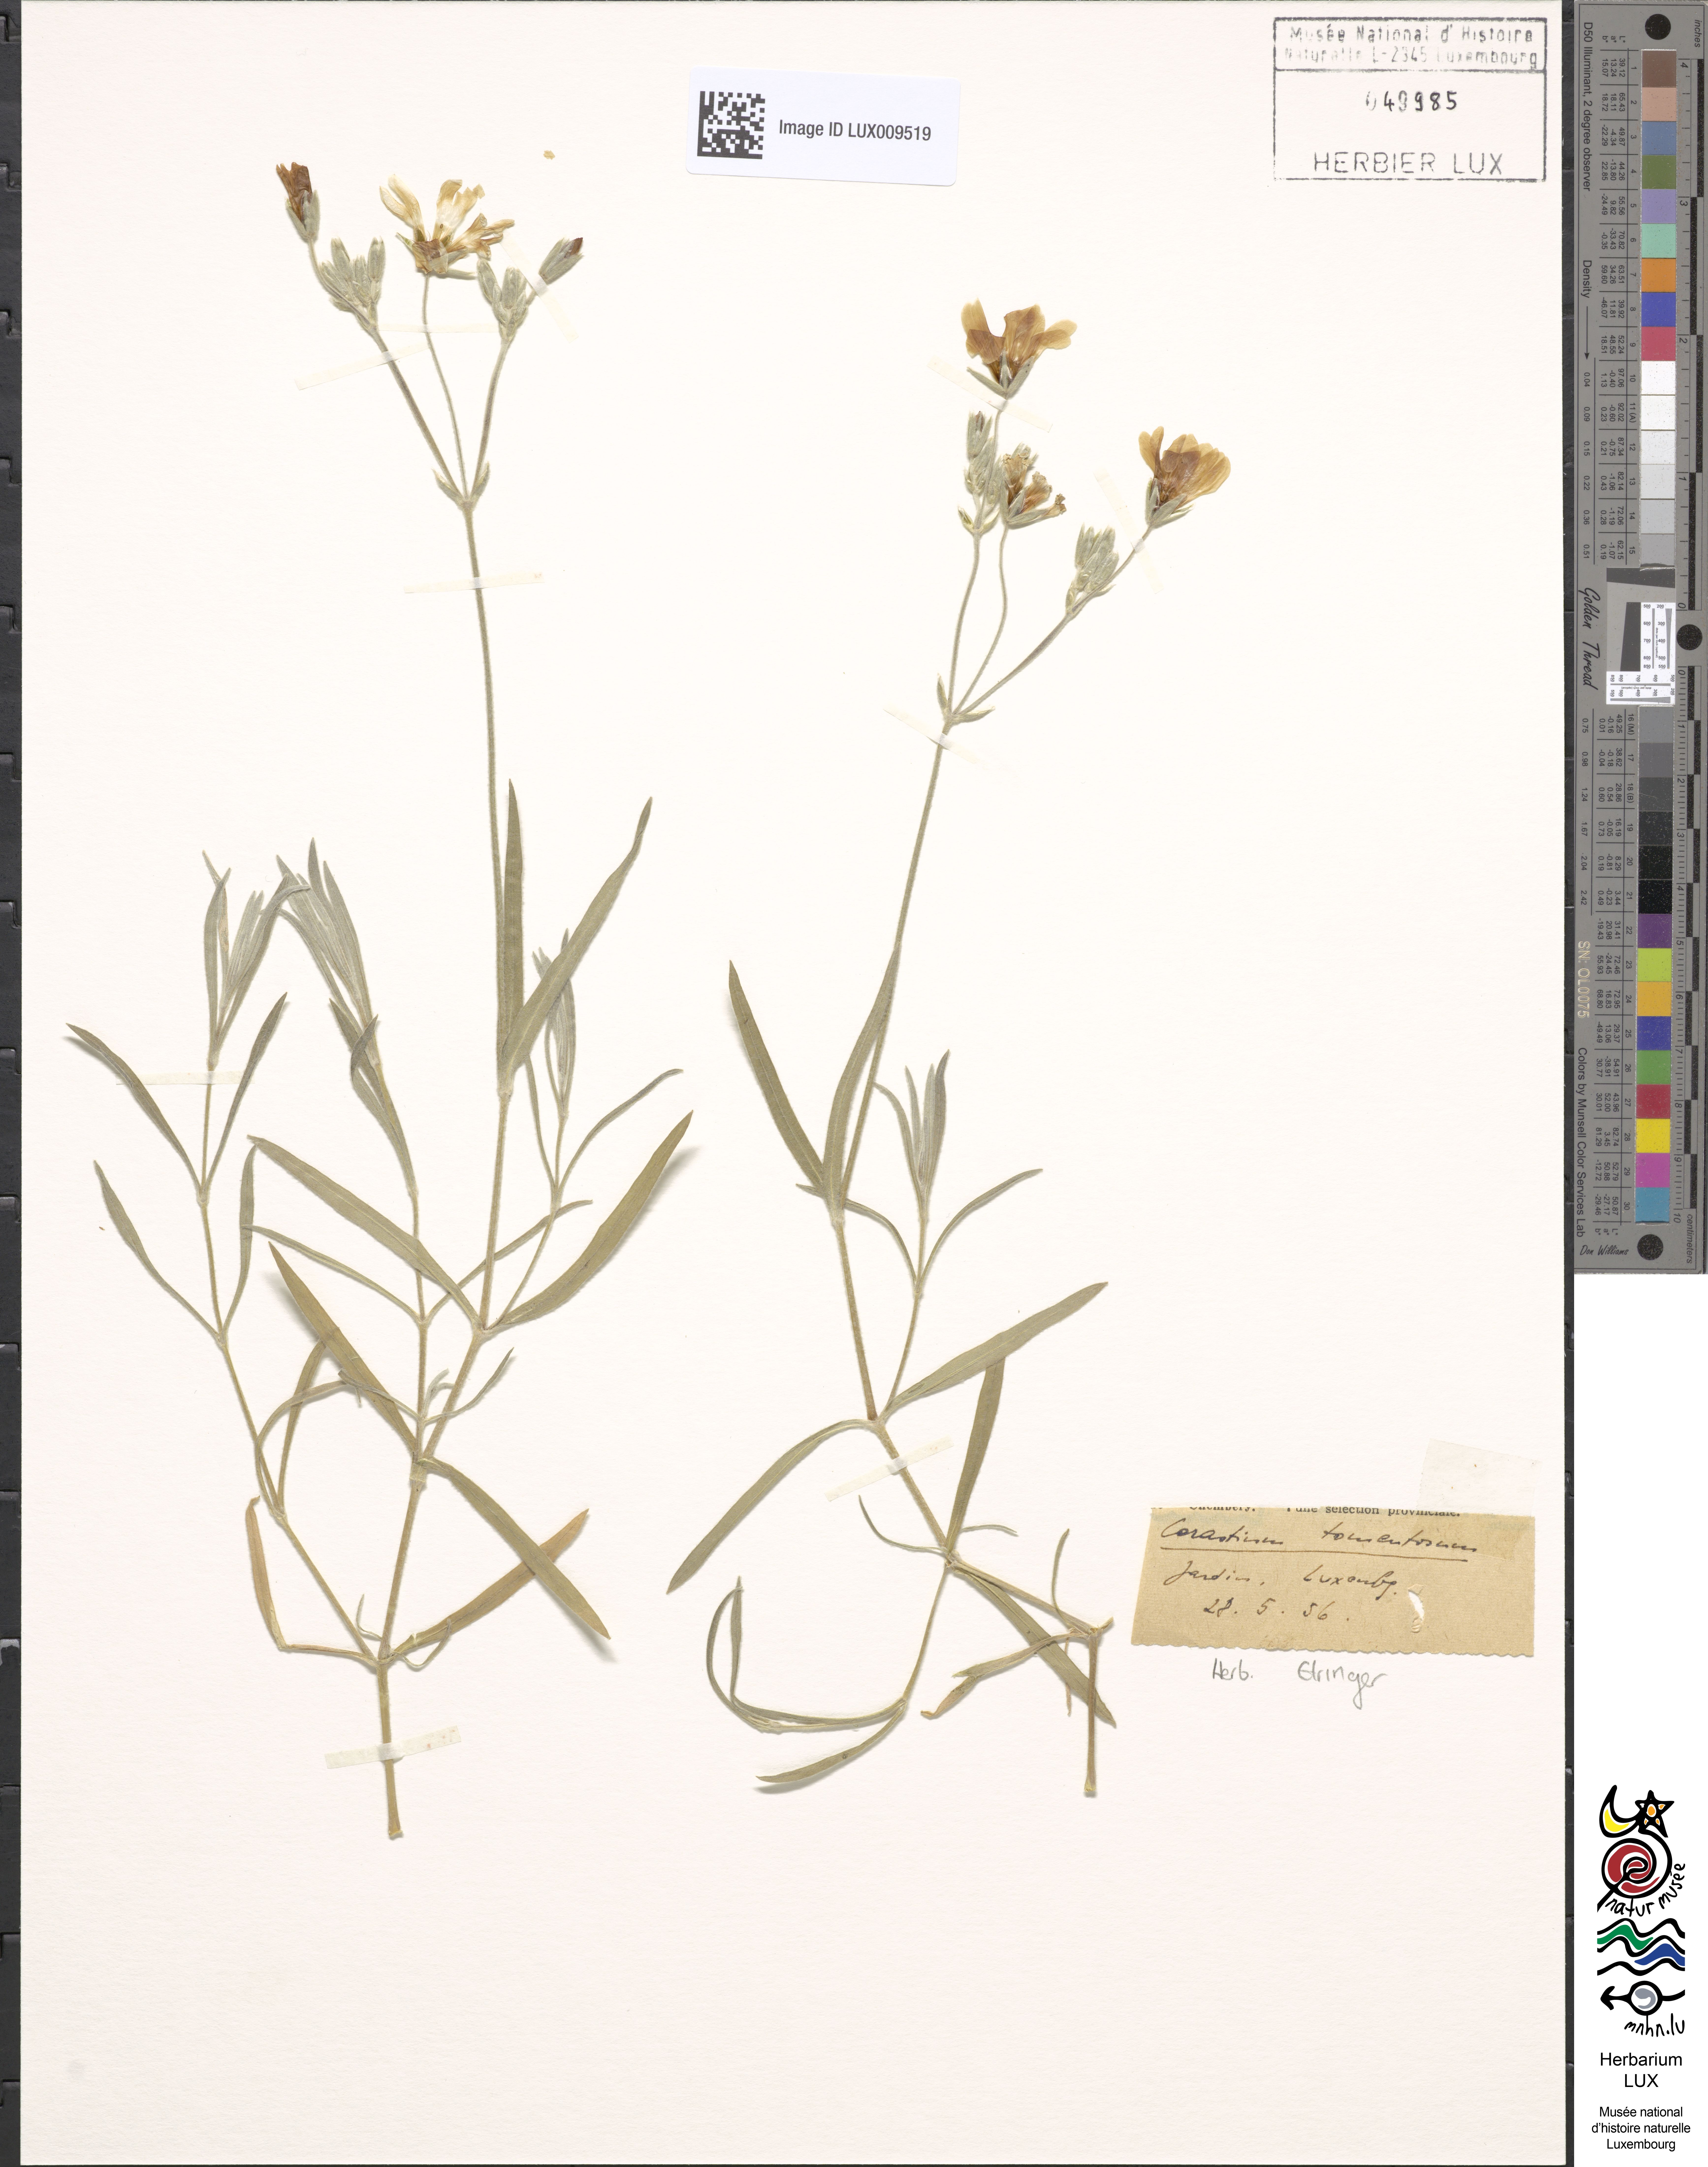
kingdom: Plantae
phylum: Tracheophyta
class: Magnoliopsida
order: Caryophyllales
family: Caryophyllaceae
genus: Cerastium
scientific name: Cerastium tomentosum
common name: Snow-in-summer
